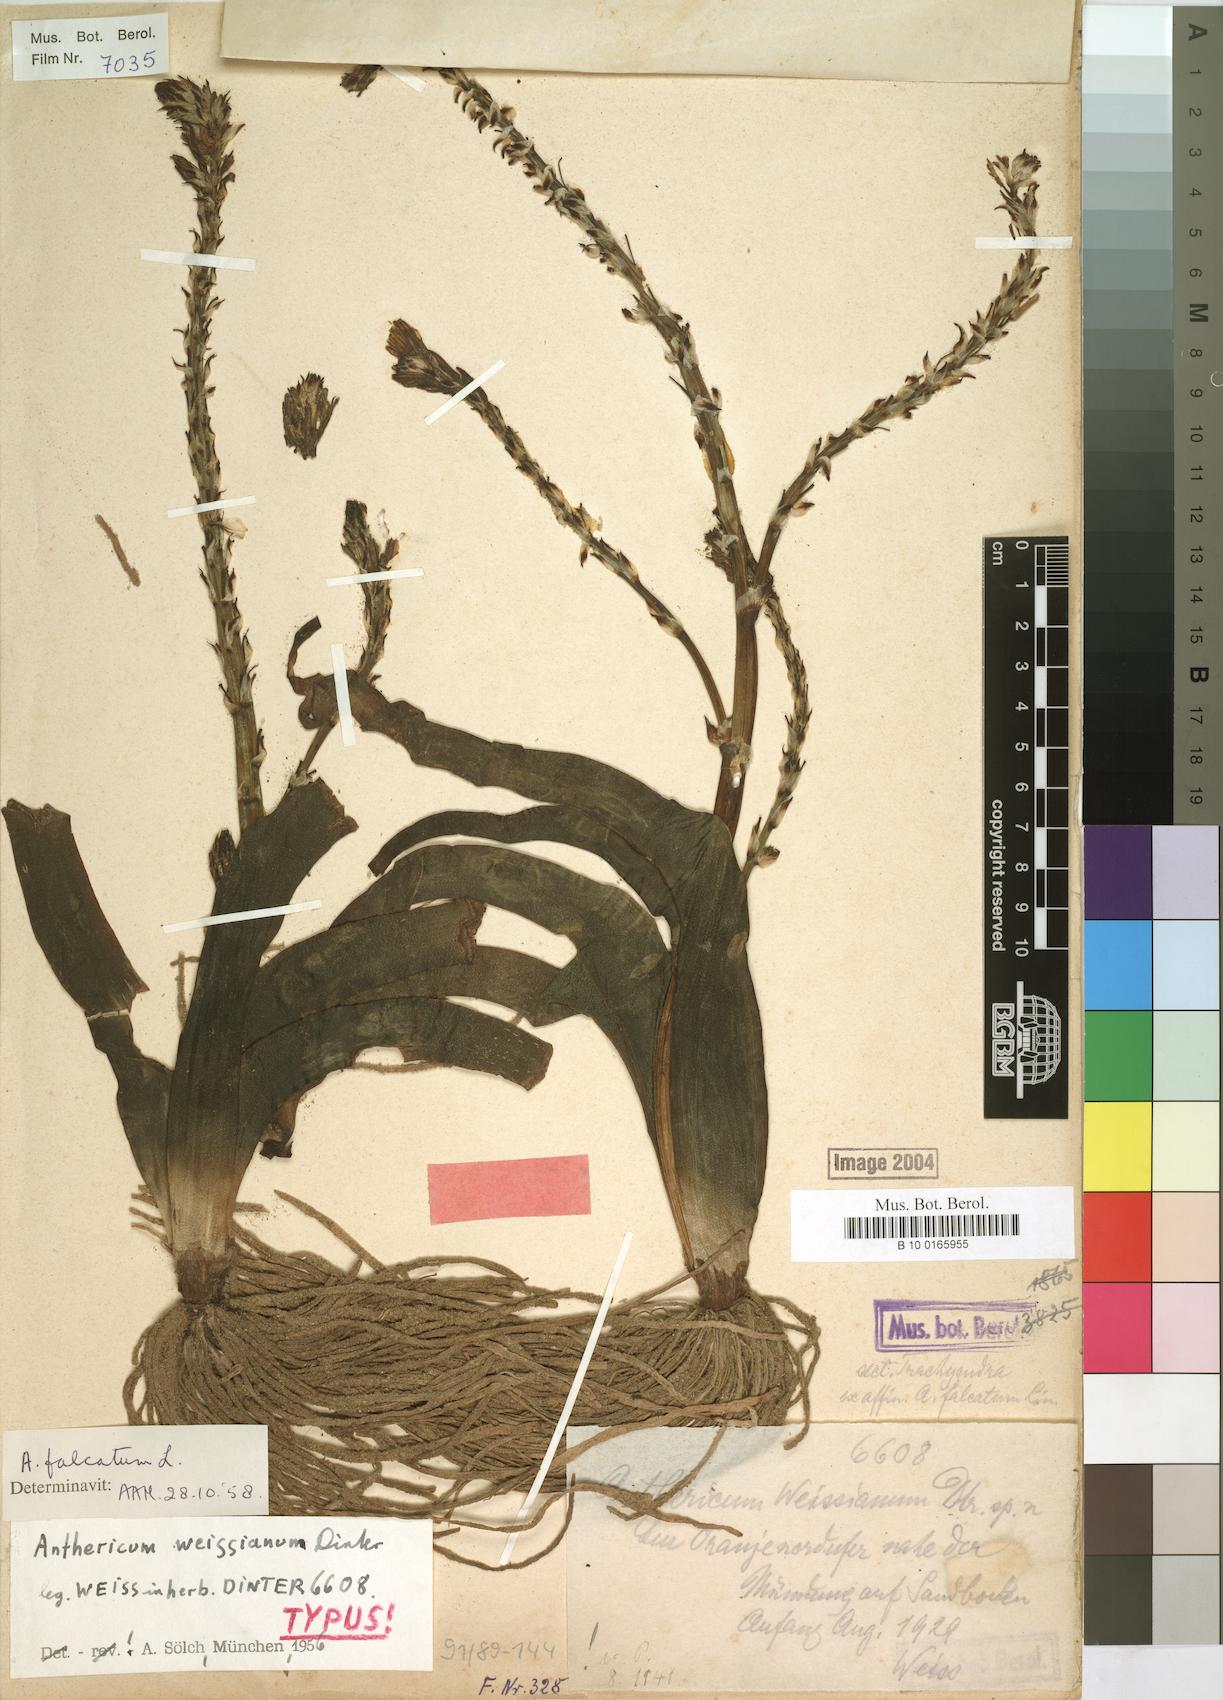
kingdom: Plantae
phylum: Tracheophyta
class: Liliopsida
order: Asparagales
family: Asphodelaceae
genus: Trachyandra
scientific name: Trachyandra falcata
